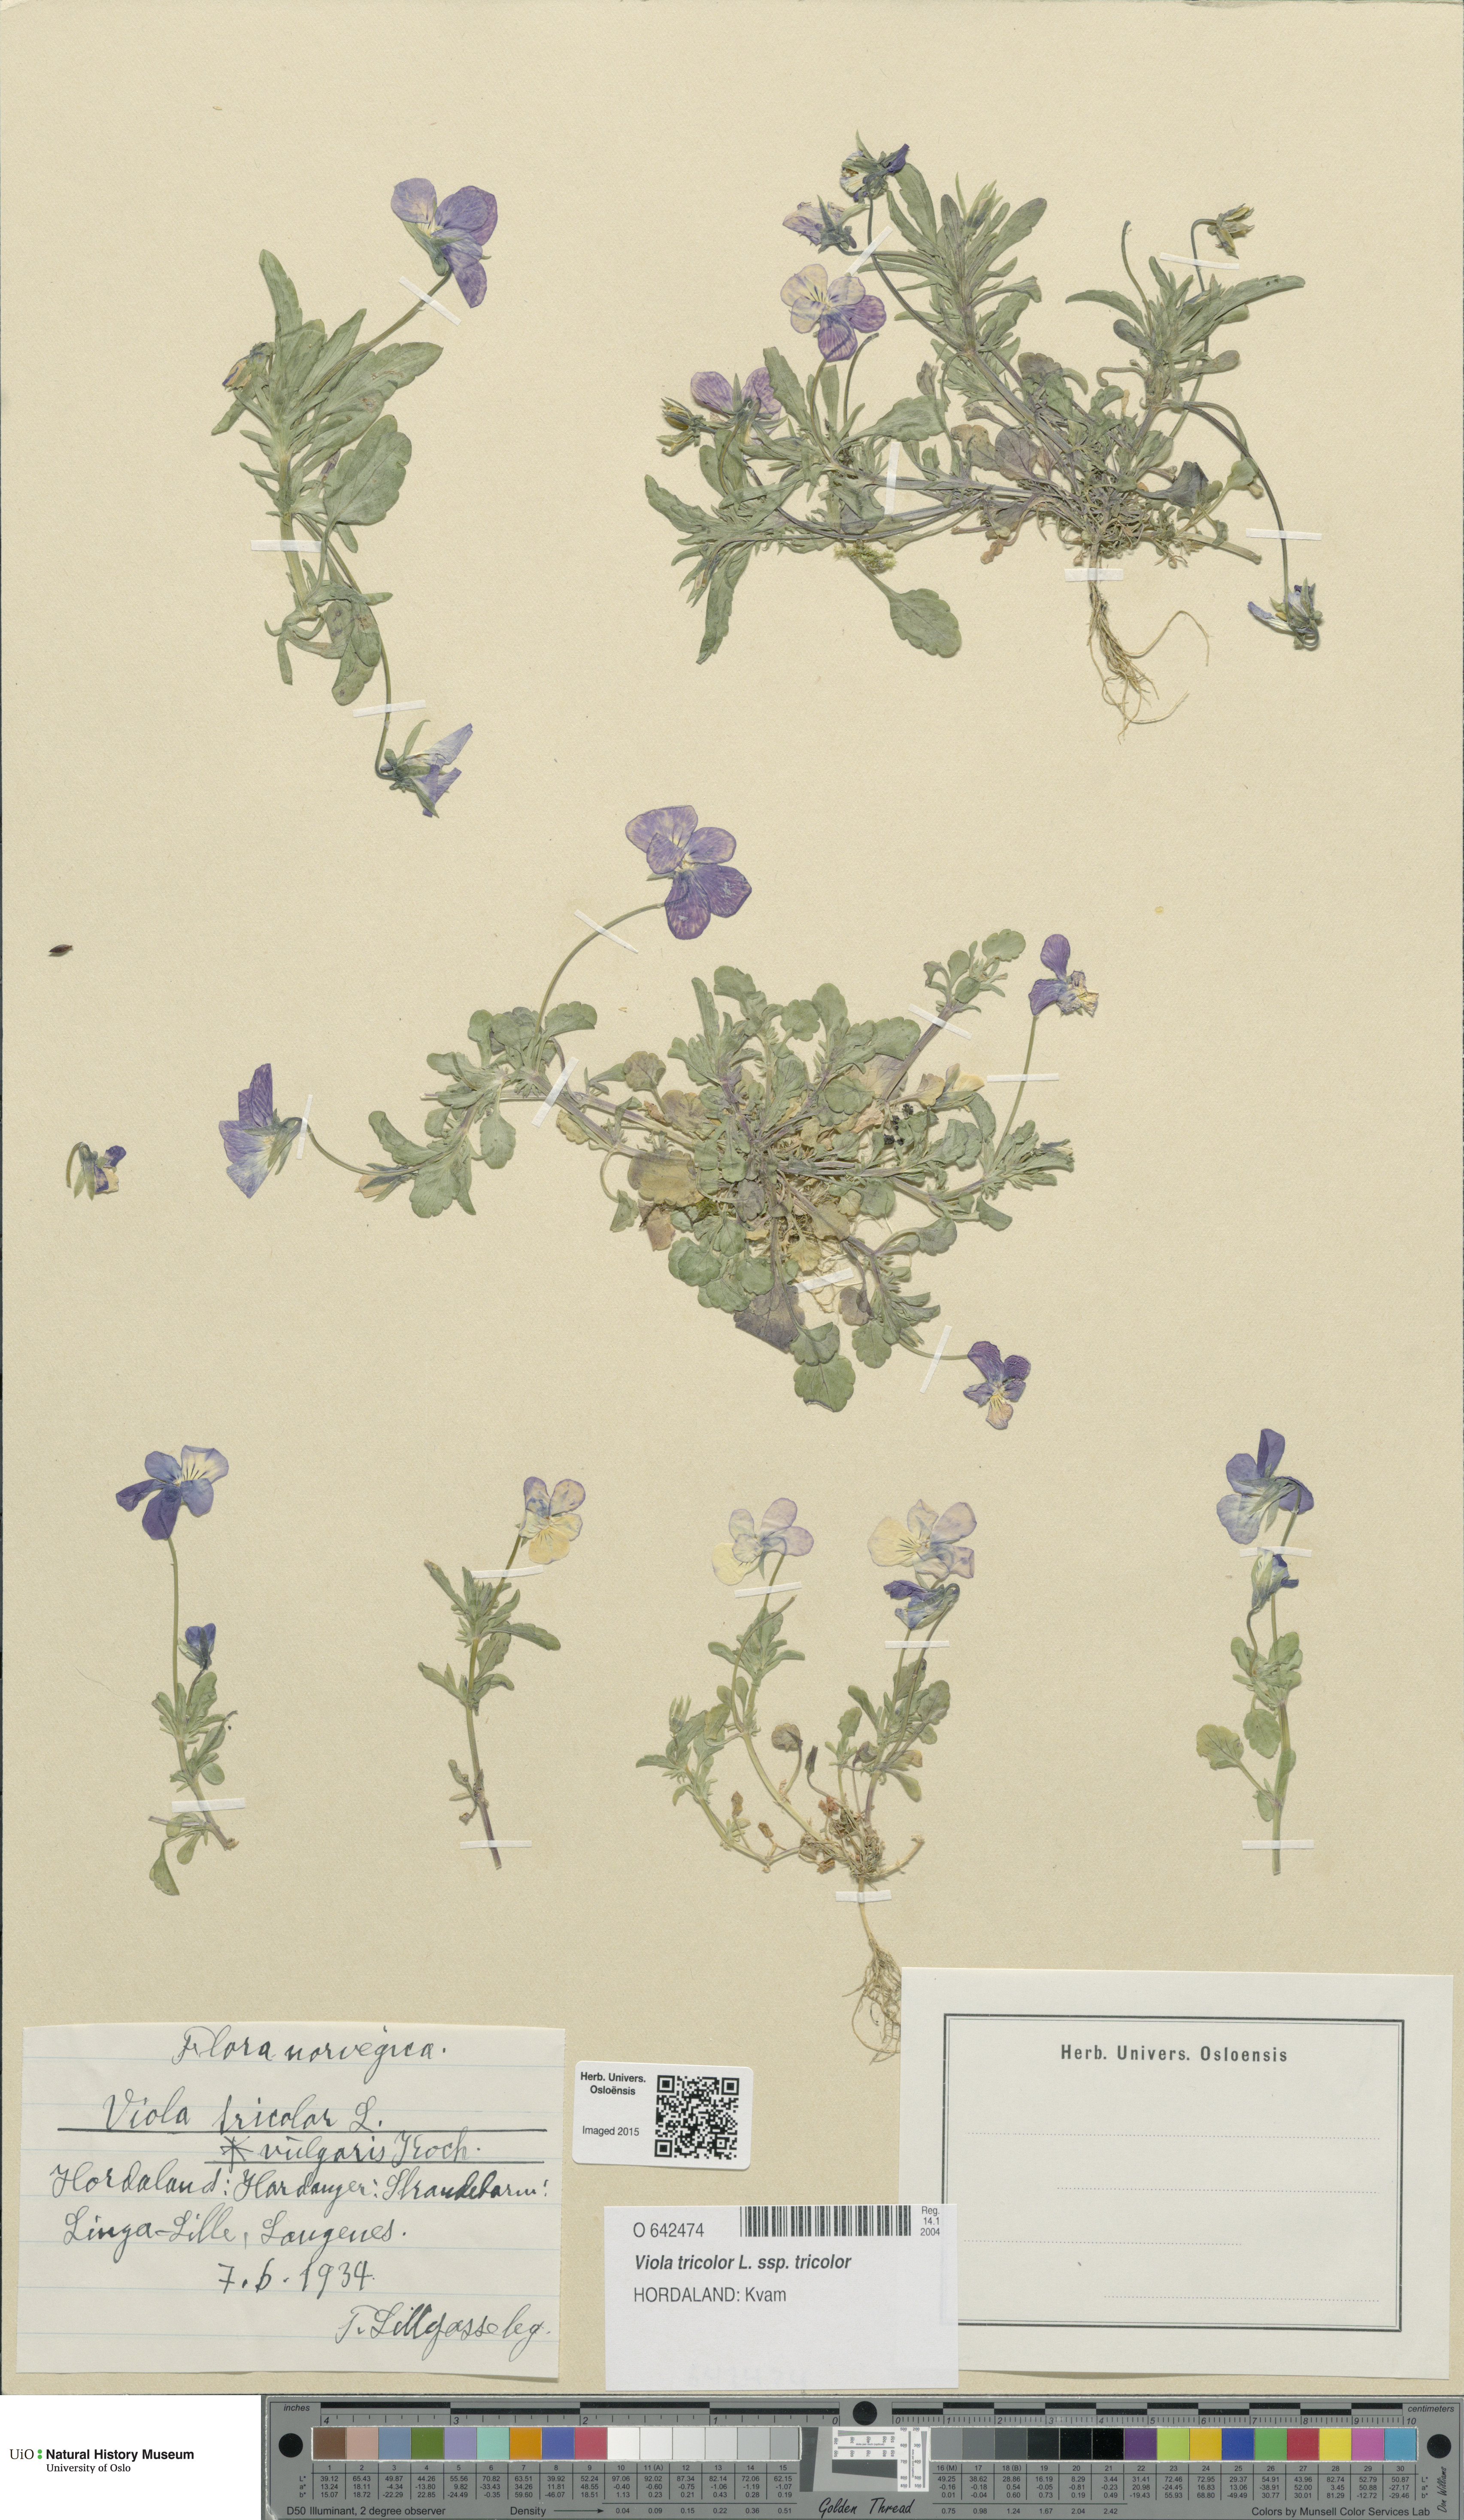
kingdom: Plantae
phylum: Tracheophyta
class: Magnoliopsida
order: Malpighiales
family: Violaceae
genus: Viola
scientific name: Viola tricolor
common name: Pansy
